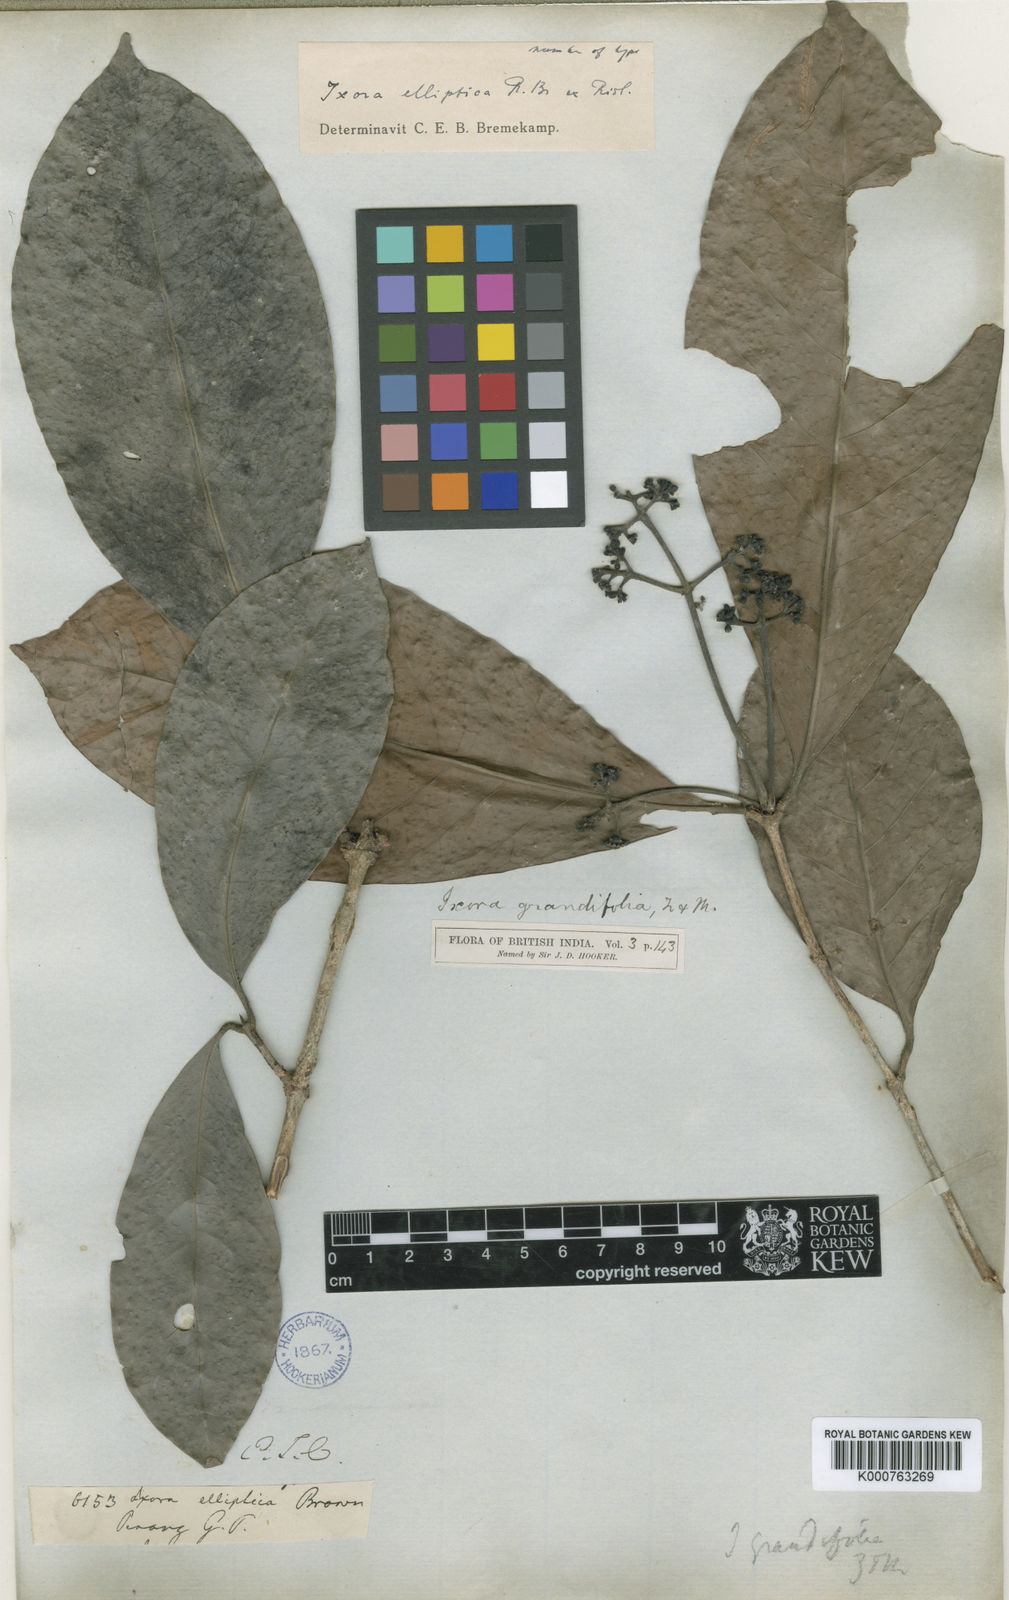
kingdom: Plantae
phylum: Tracheophyta
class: Magnoliopsida
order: Gentianales
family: Rubiaceae
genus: Ixora
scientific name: Ixora grandifolia
